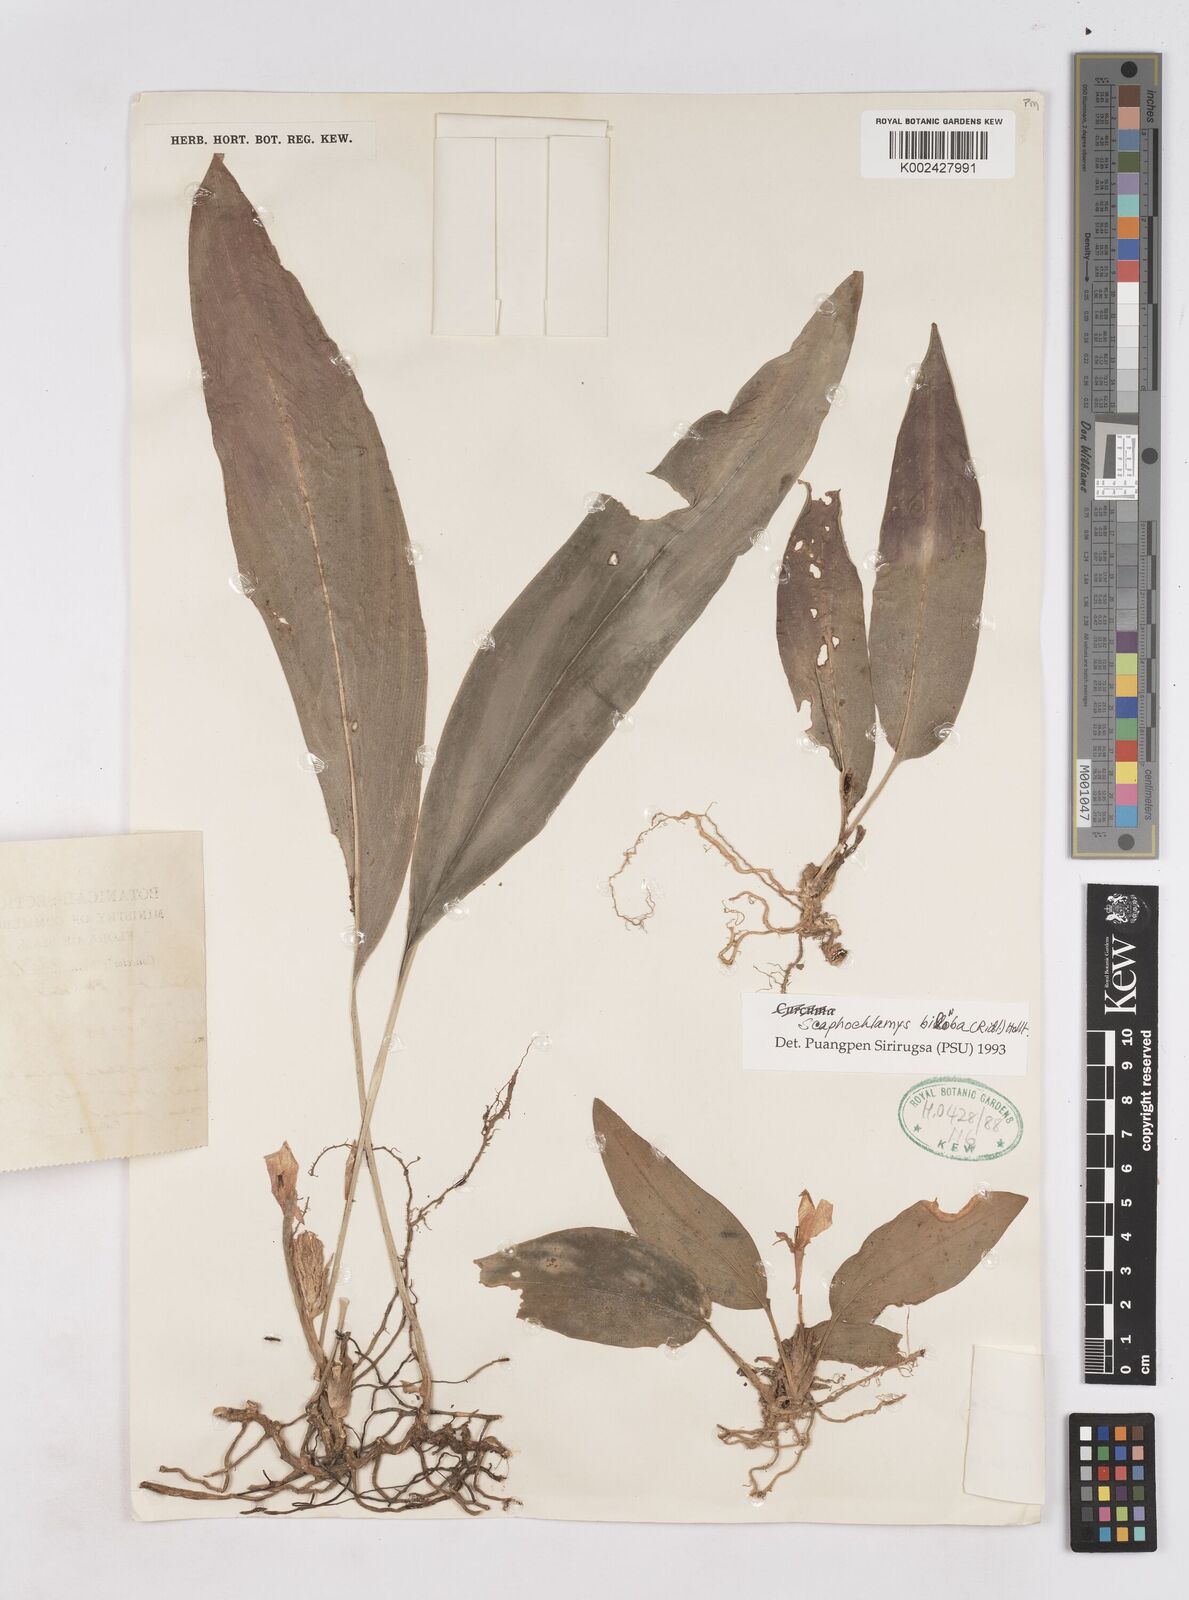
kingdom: Plantae
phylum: Tracheophyta
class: Liliopsida
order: Zingiberales
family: Zingiberaceae
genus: Scaphochlamys
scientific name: Scaphochlamys biloba
